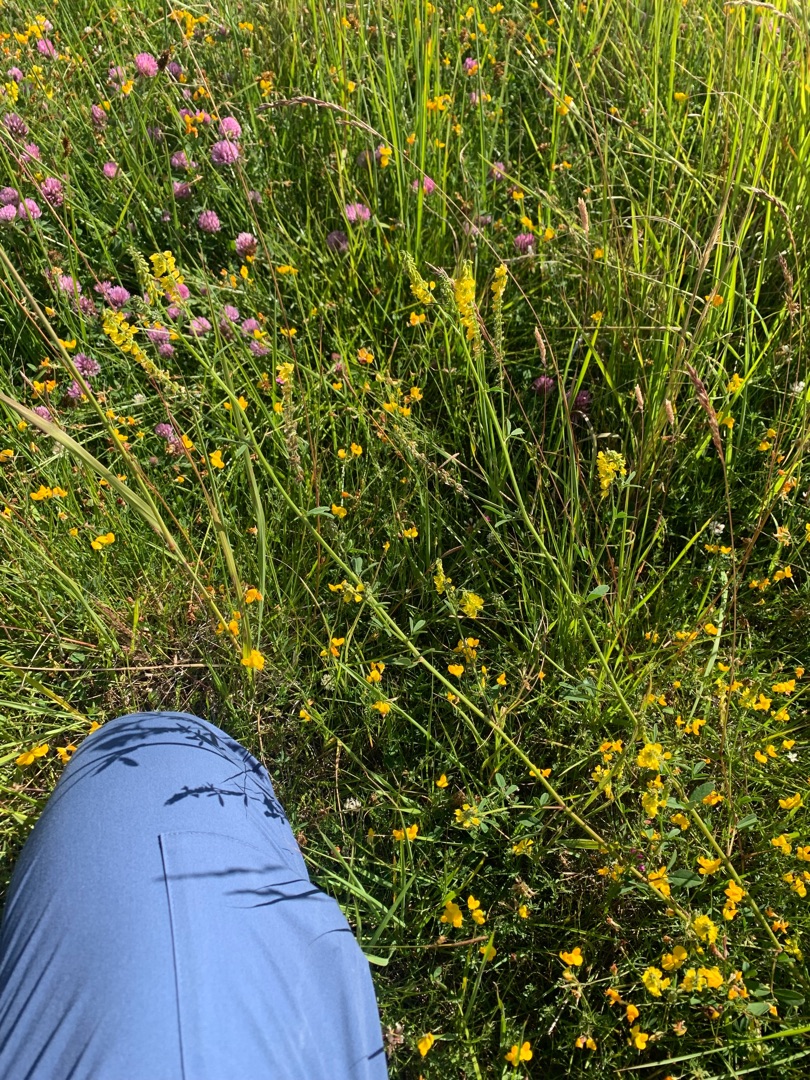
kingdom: Plantae
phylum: Tracheophyta
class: Magnoliopsida
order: Fabales
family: Fabaceae
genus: Melilotus
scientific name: Melilotus altissimus
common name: Høj stenkløver
